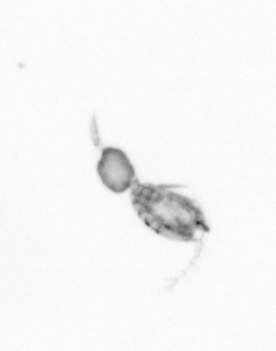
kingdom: Animalia
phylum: Arthropoda
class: Copepoda
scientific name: Copepoda
